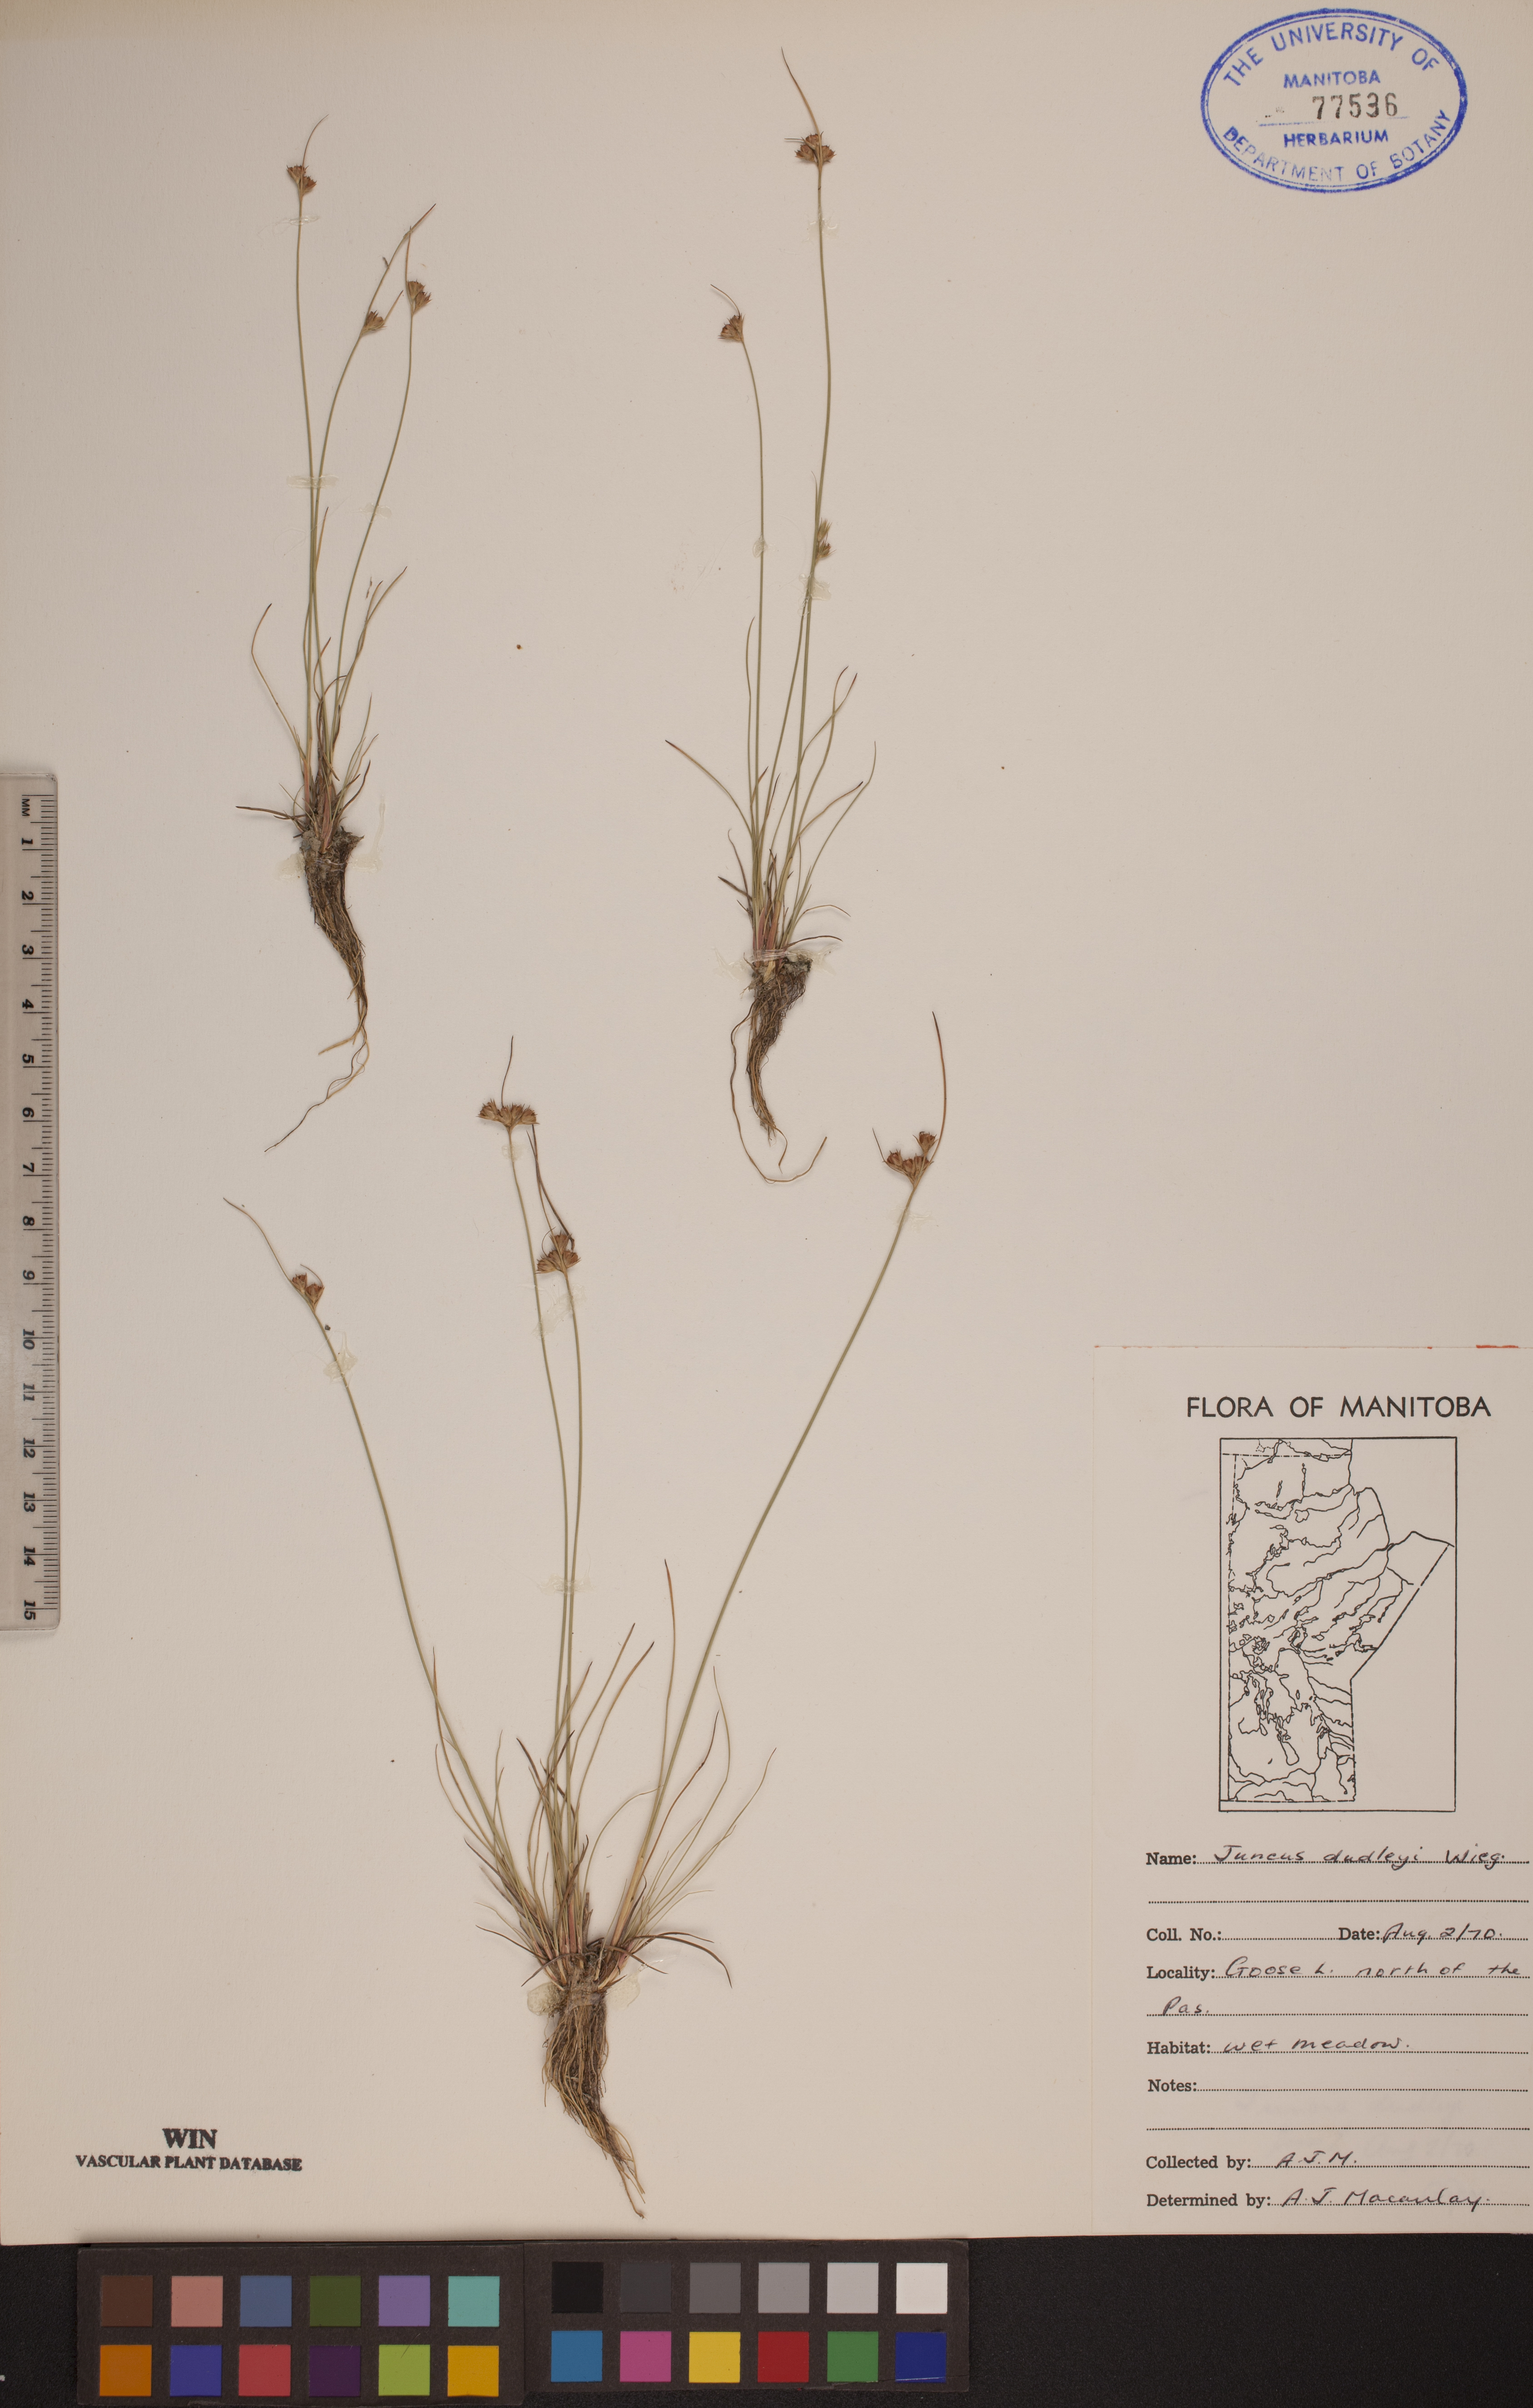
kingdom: Plantae
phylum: Tracheophyta
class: Liliopsida
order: Poales
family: Juncaceae
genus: Juncus
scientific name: Juncus dudleyi
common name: Dudley's rush
